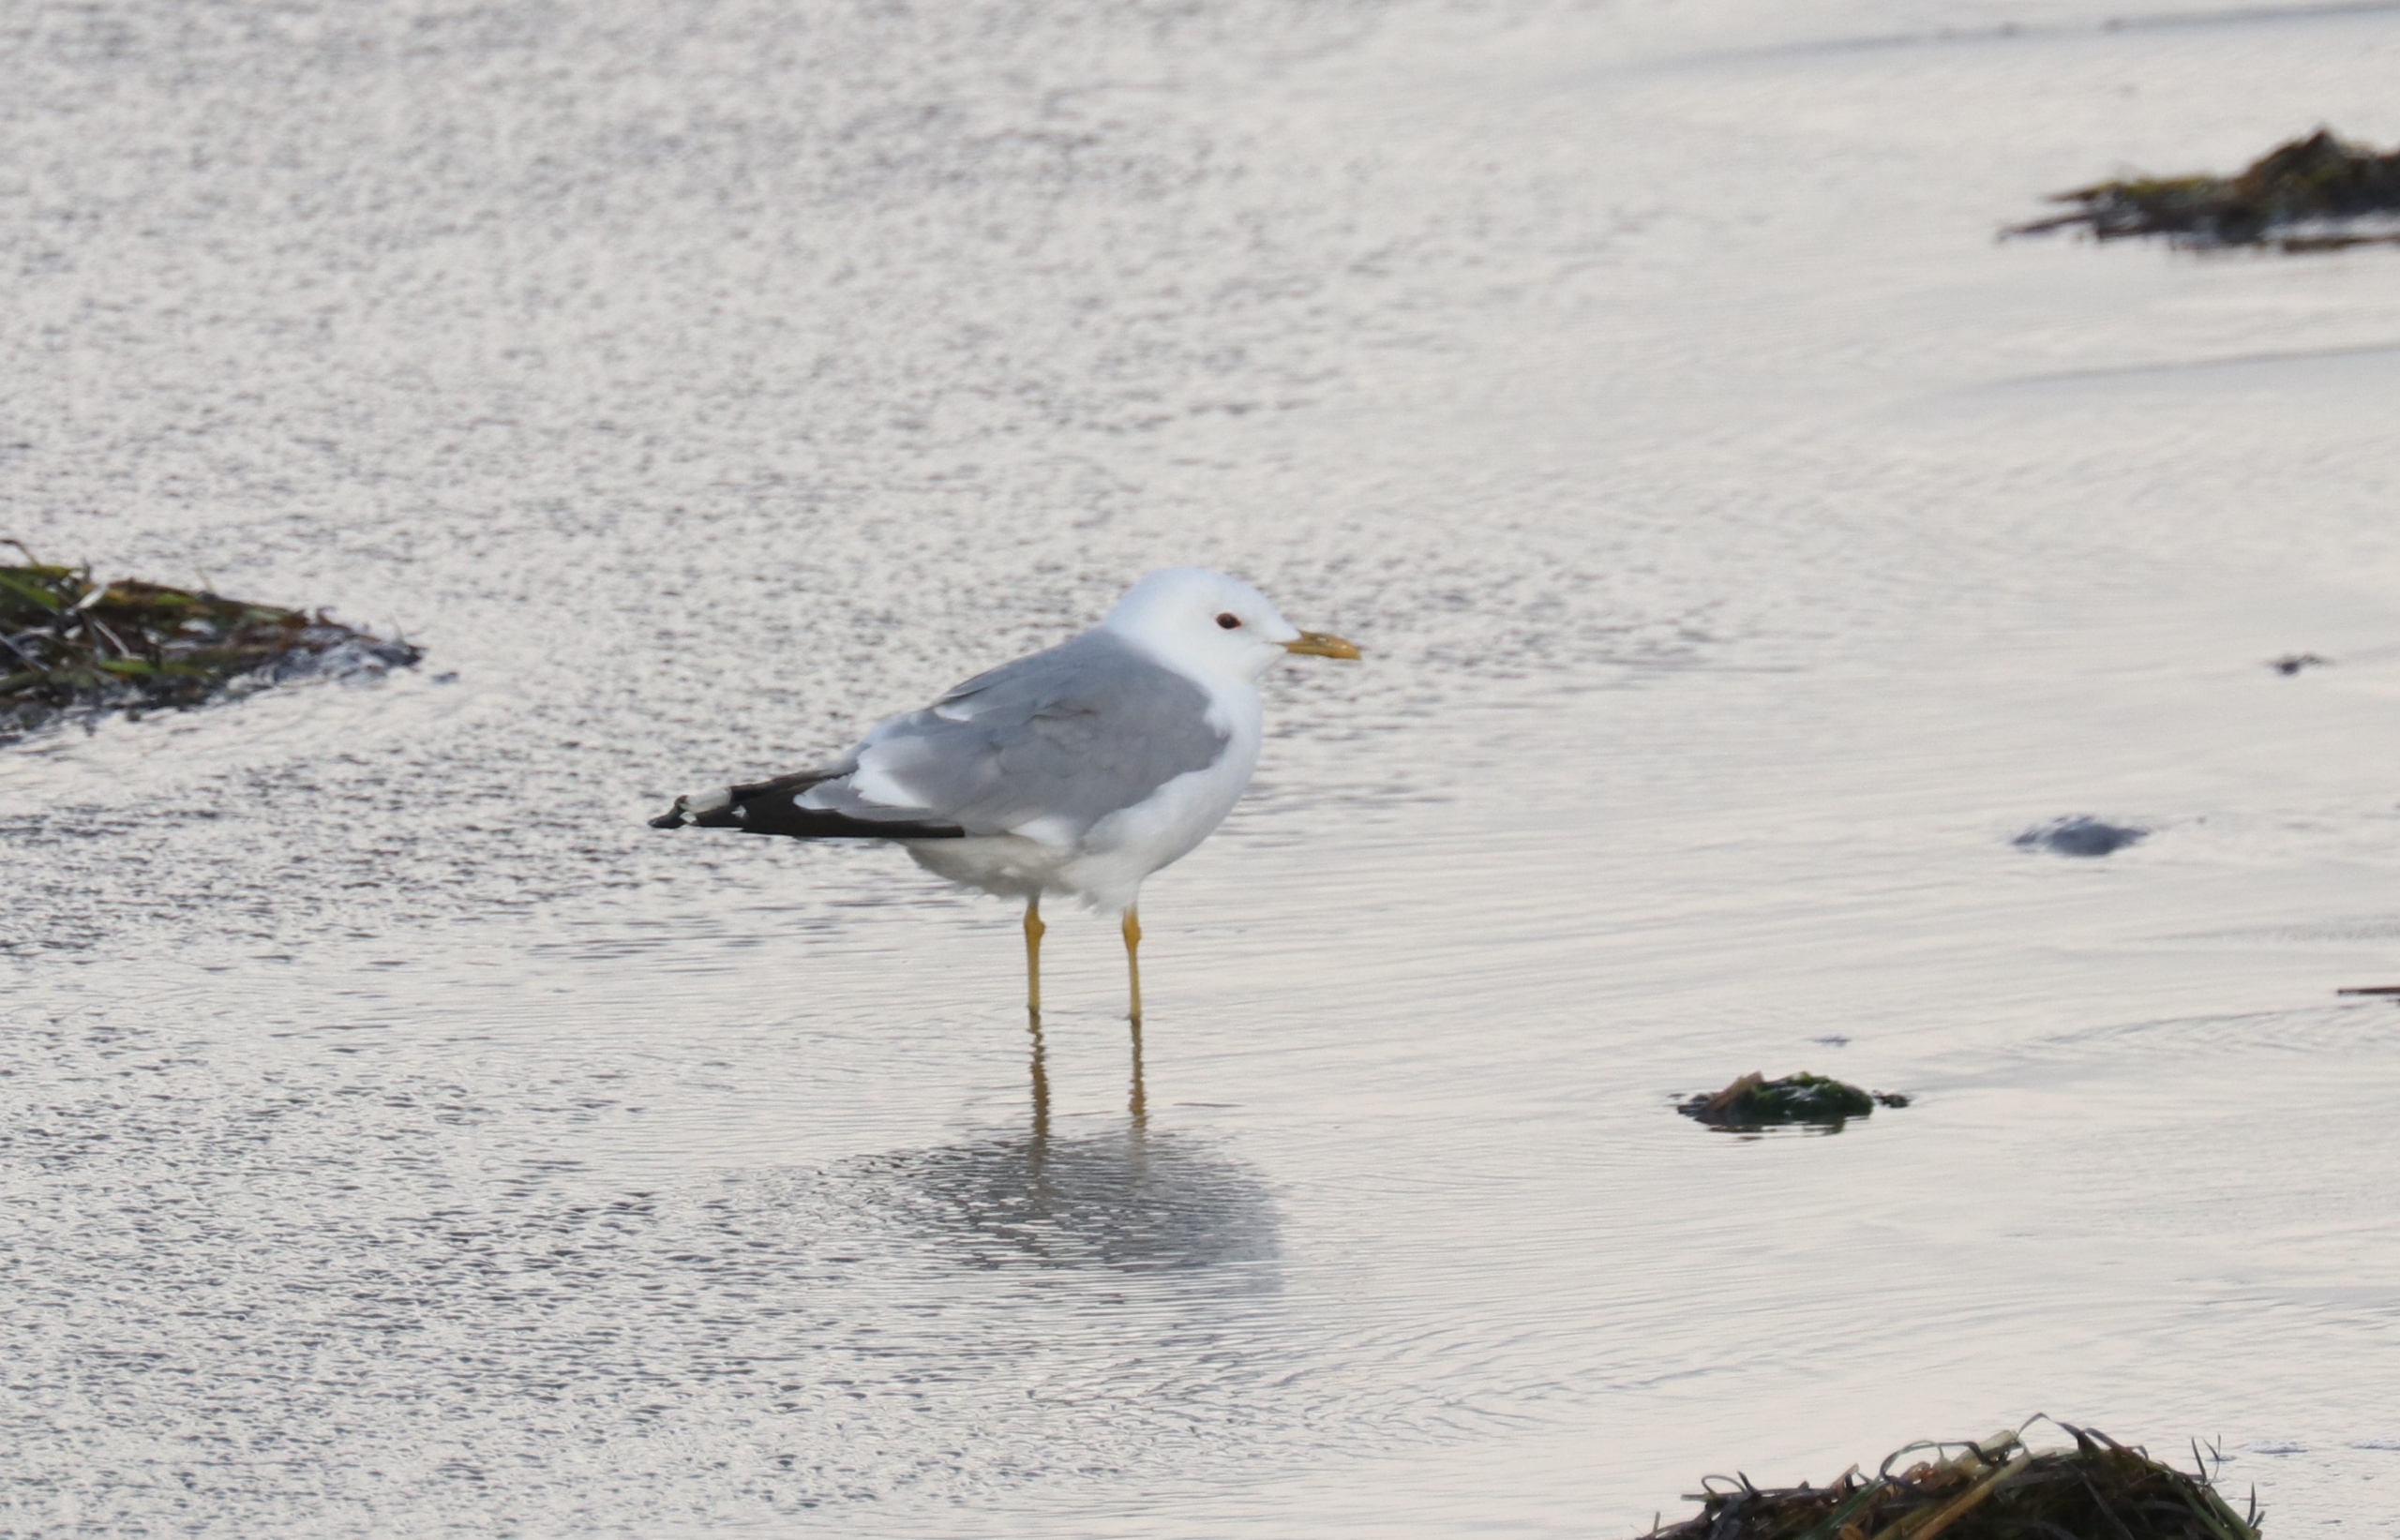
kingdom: Animalia
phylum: Chordata
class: Aves
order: Charadriiformes
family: Laridae
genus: Larus
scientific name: Larus canus
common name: Stormmåge
